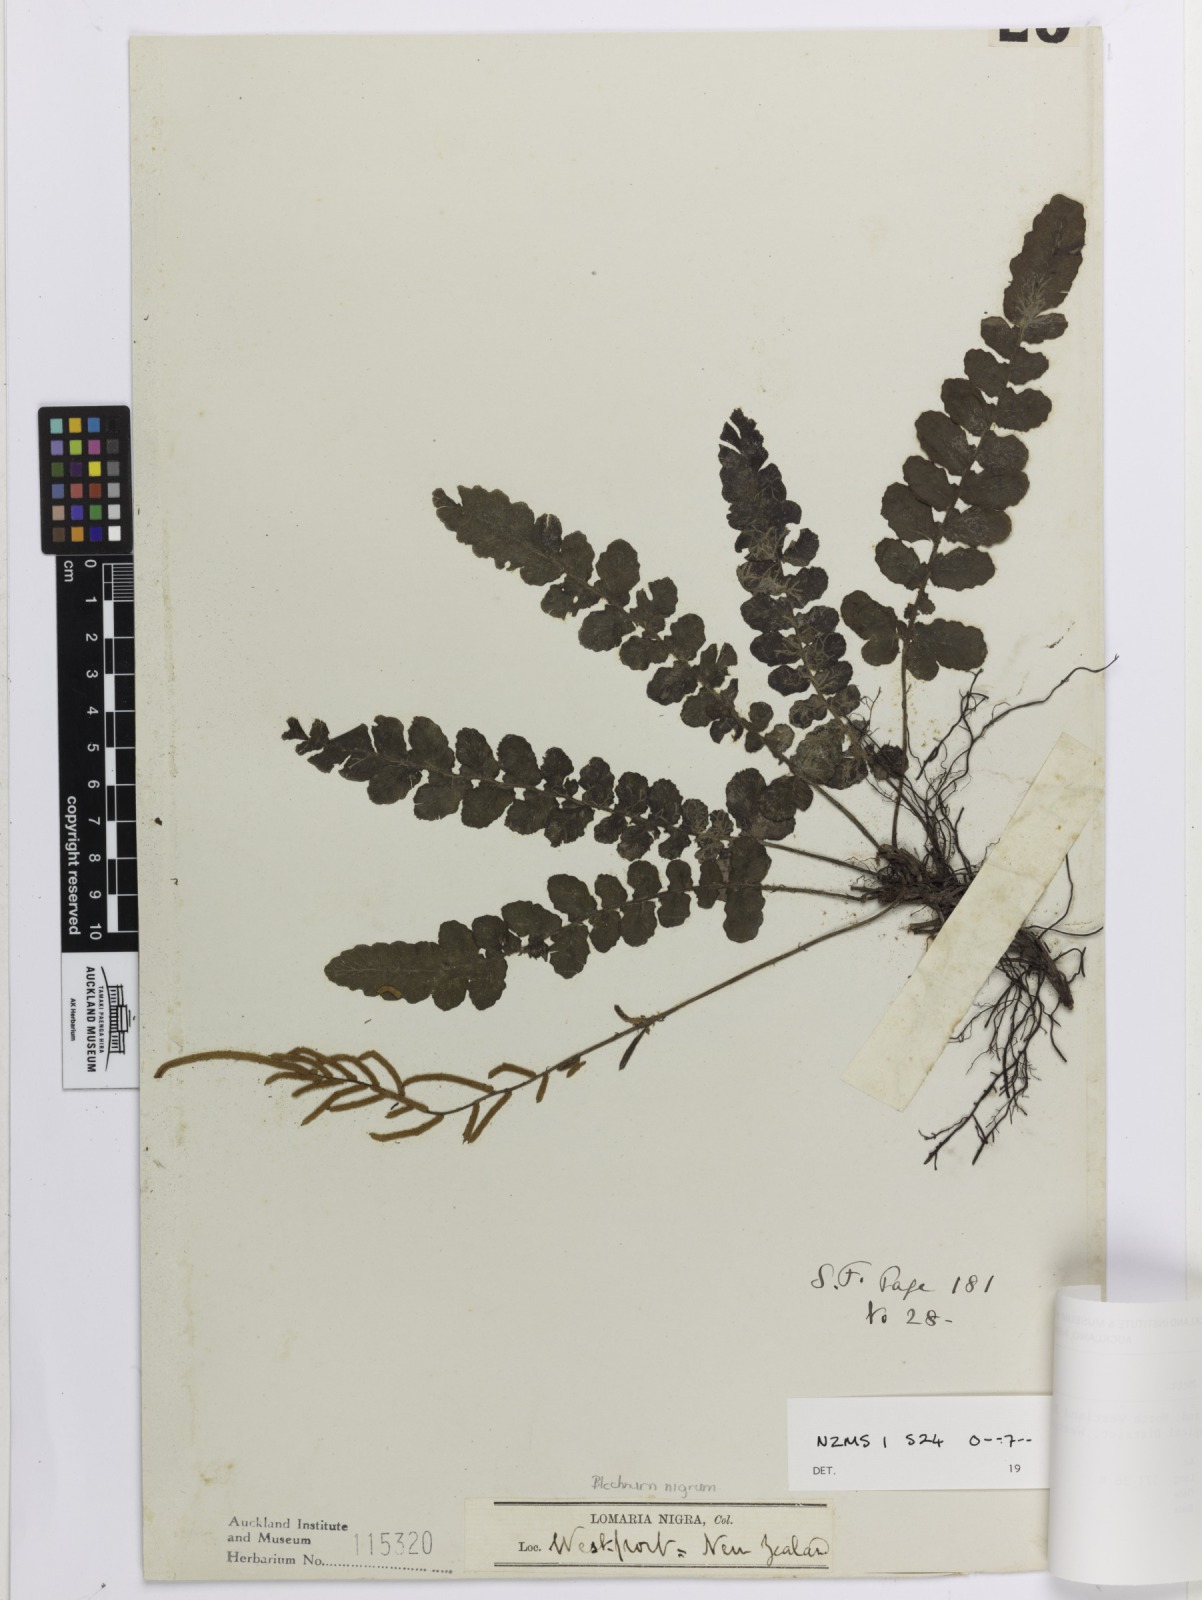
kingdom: Plantae
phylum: Tracheophyta
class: Polypodiopsida
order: Polypodiales
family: Blechnaceae
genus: Cranfillia
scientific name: Cranfillia nigra
